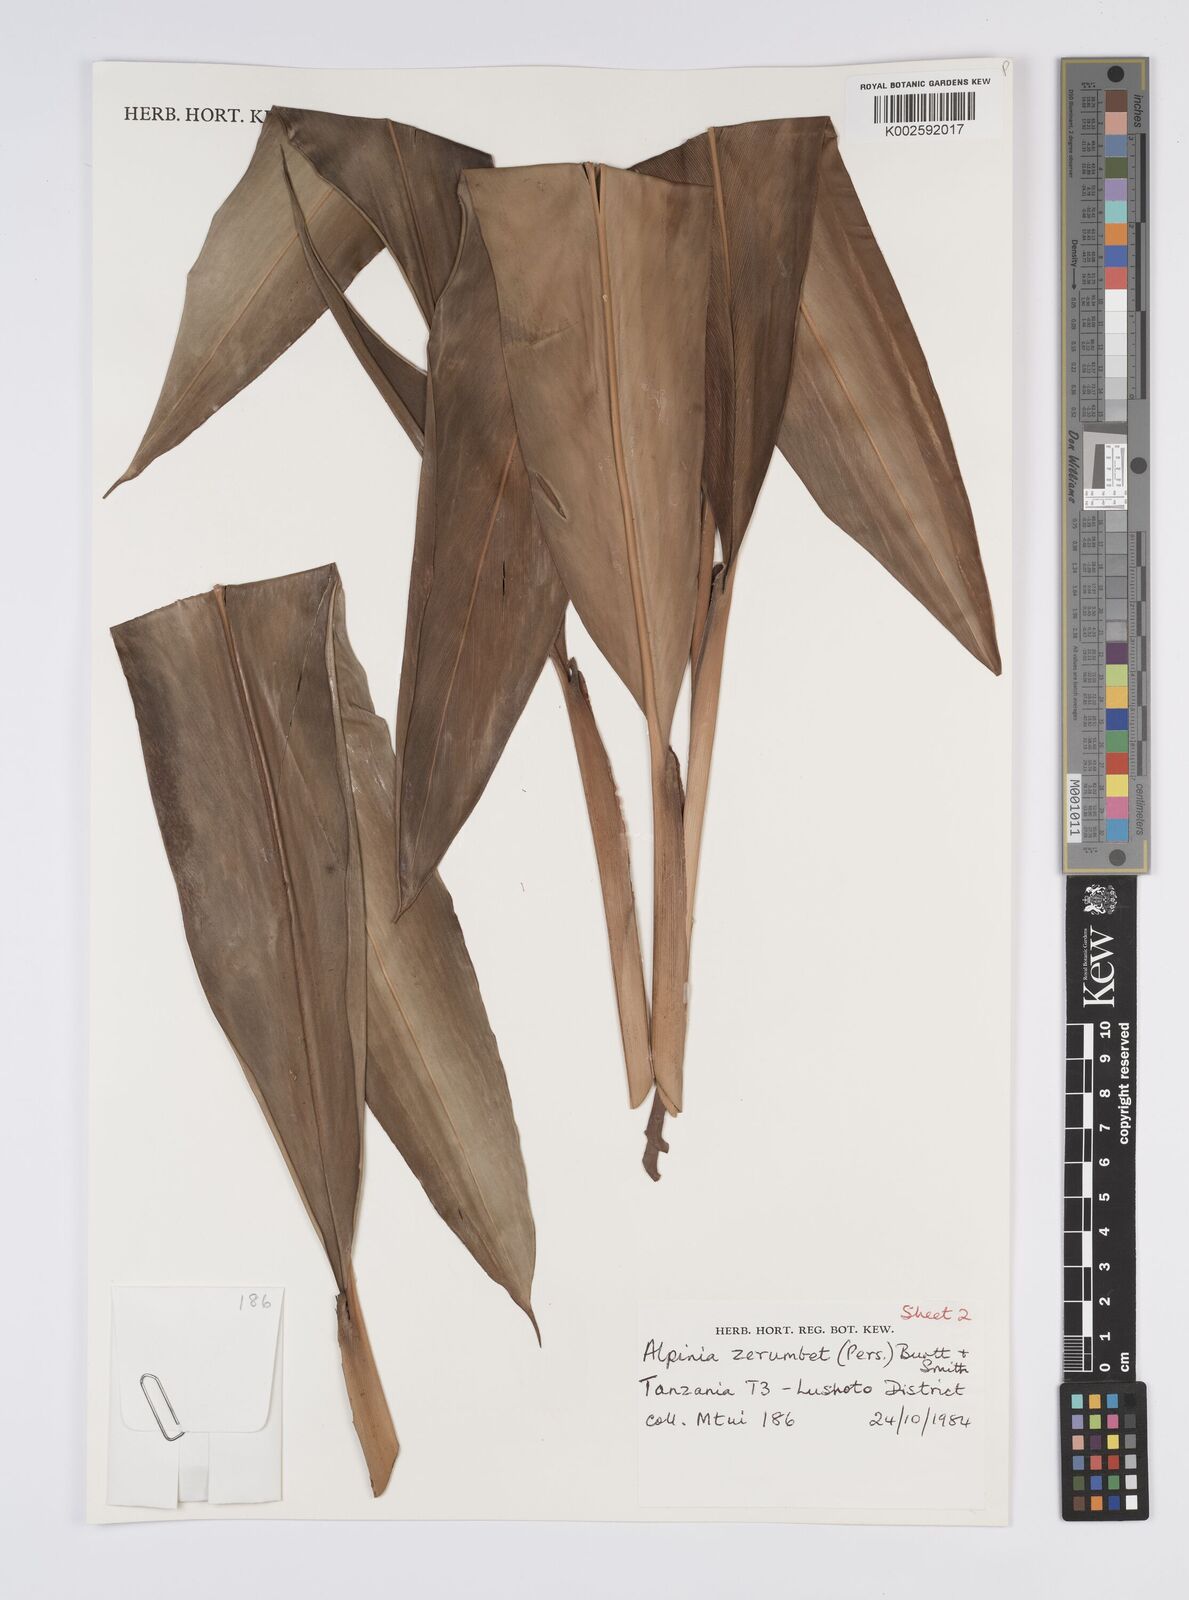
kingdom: Plantae
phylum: Tracheophyta
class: Liliopsida
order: Zingiberales
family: Zingiberaceae
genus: Alpinia
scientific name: Alpinia zerumbet
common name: Shellplant
